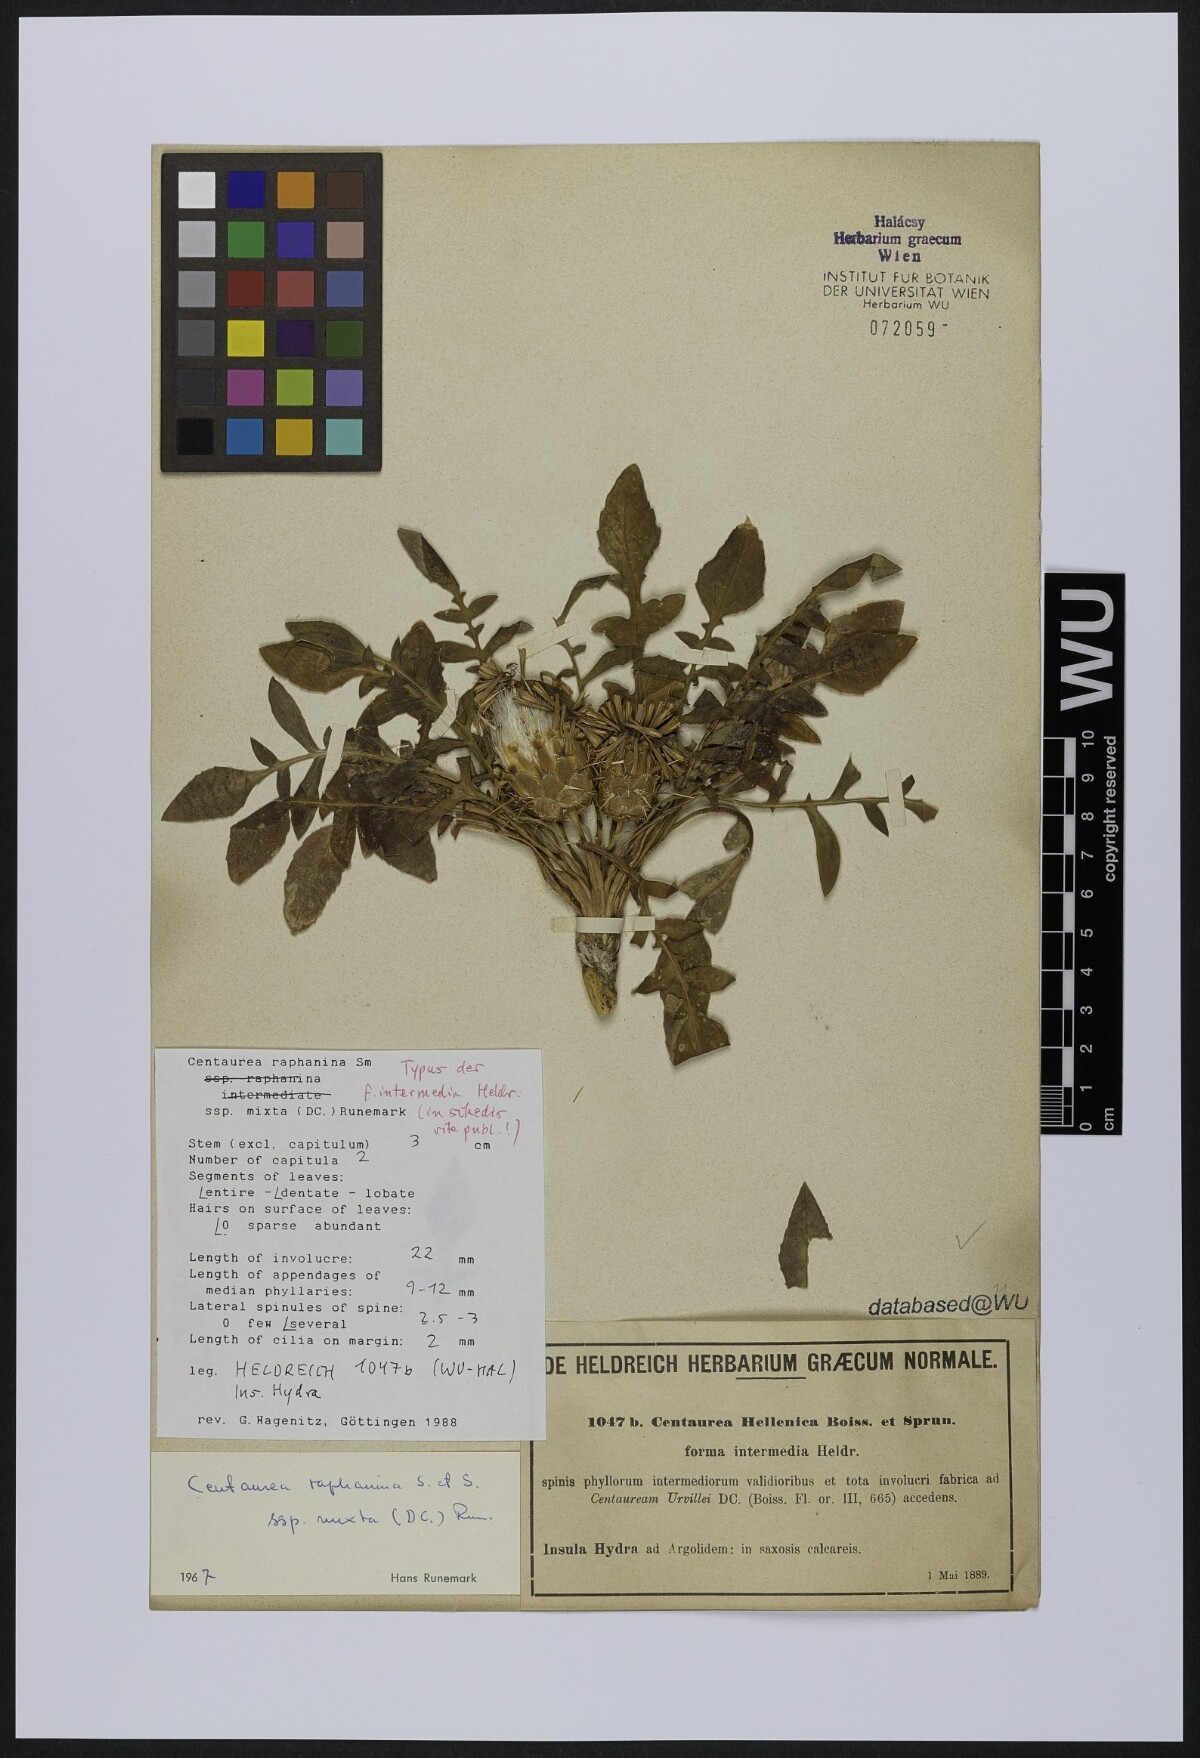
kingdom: Plantae
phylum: Tracheophyta
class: Magnoliopsida
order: Asterales
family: Asteraceae
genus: Centaurea
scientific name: Centaurea raphanina
